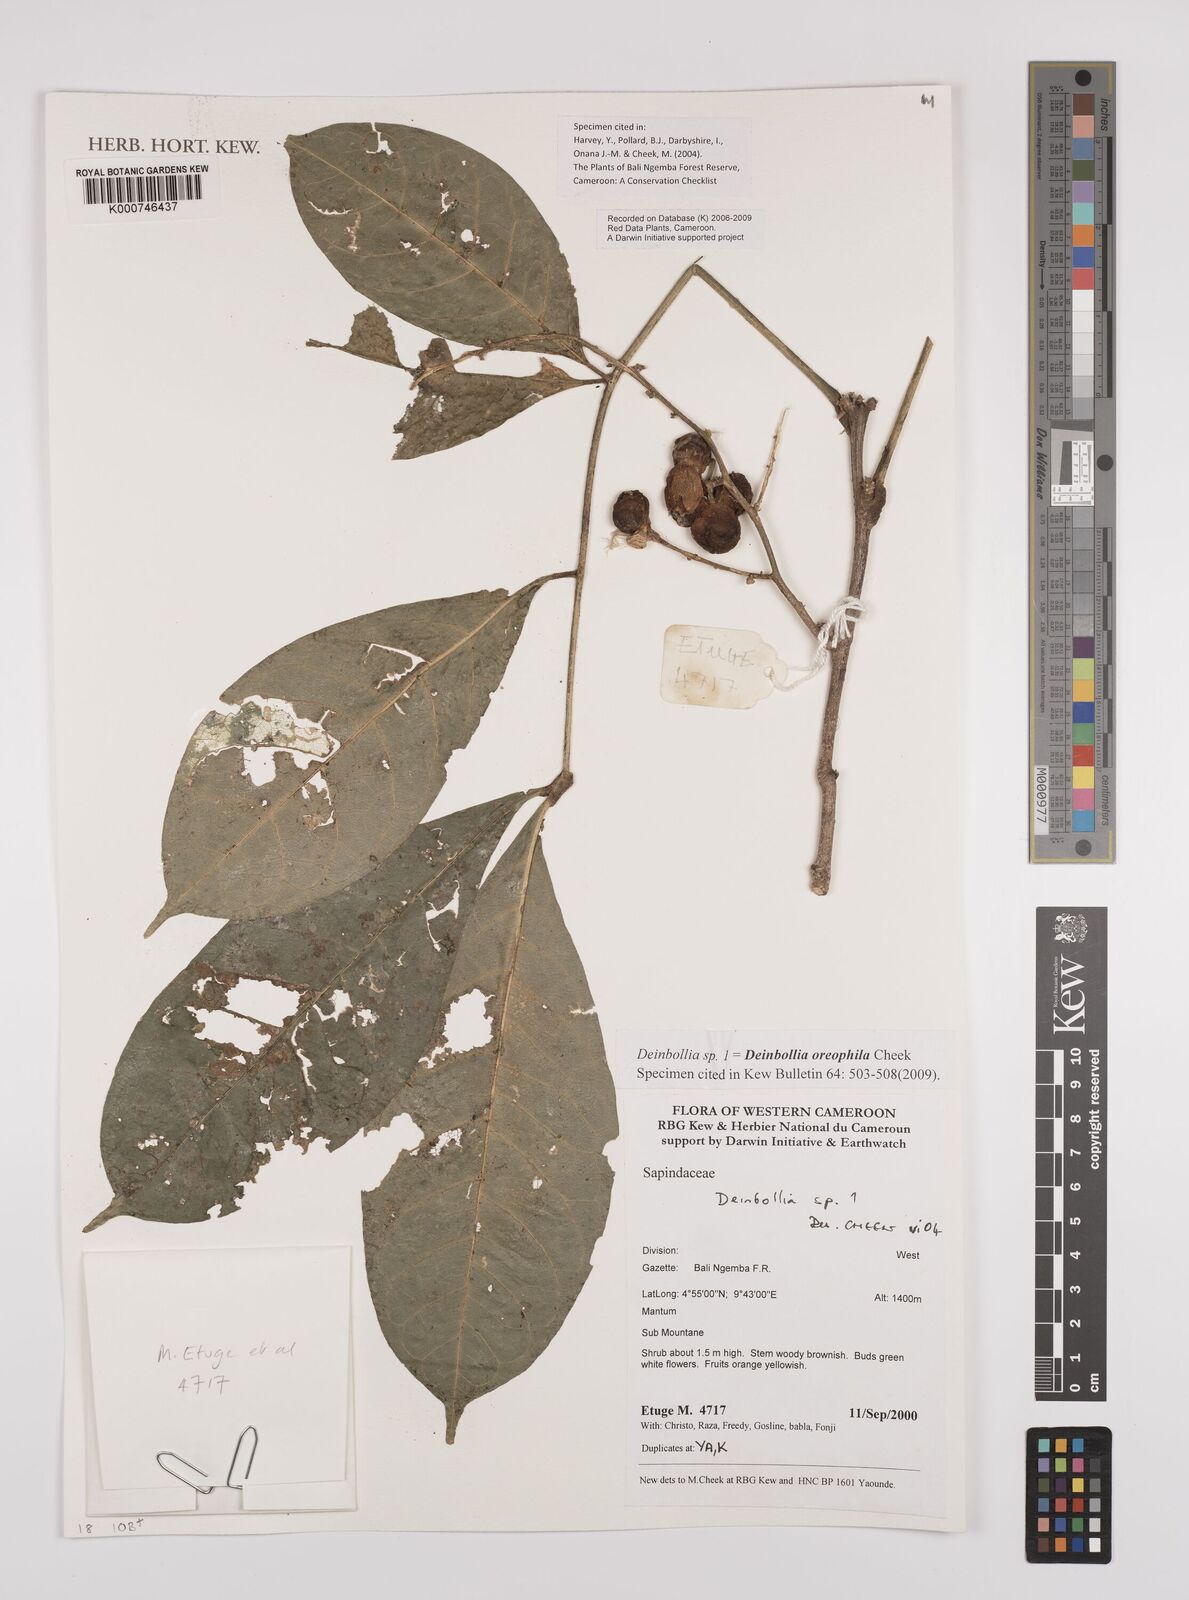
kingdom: Plantae
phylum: Tracheophyta
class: Magnoliopsida
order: Sapindales
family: Sapindaceae
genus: Deinbollia
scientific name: Deinbollia oreophila
